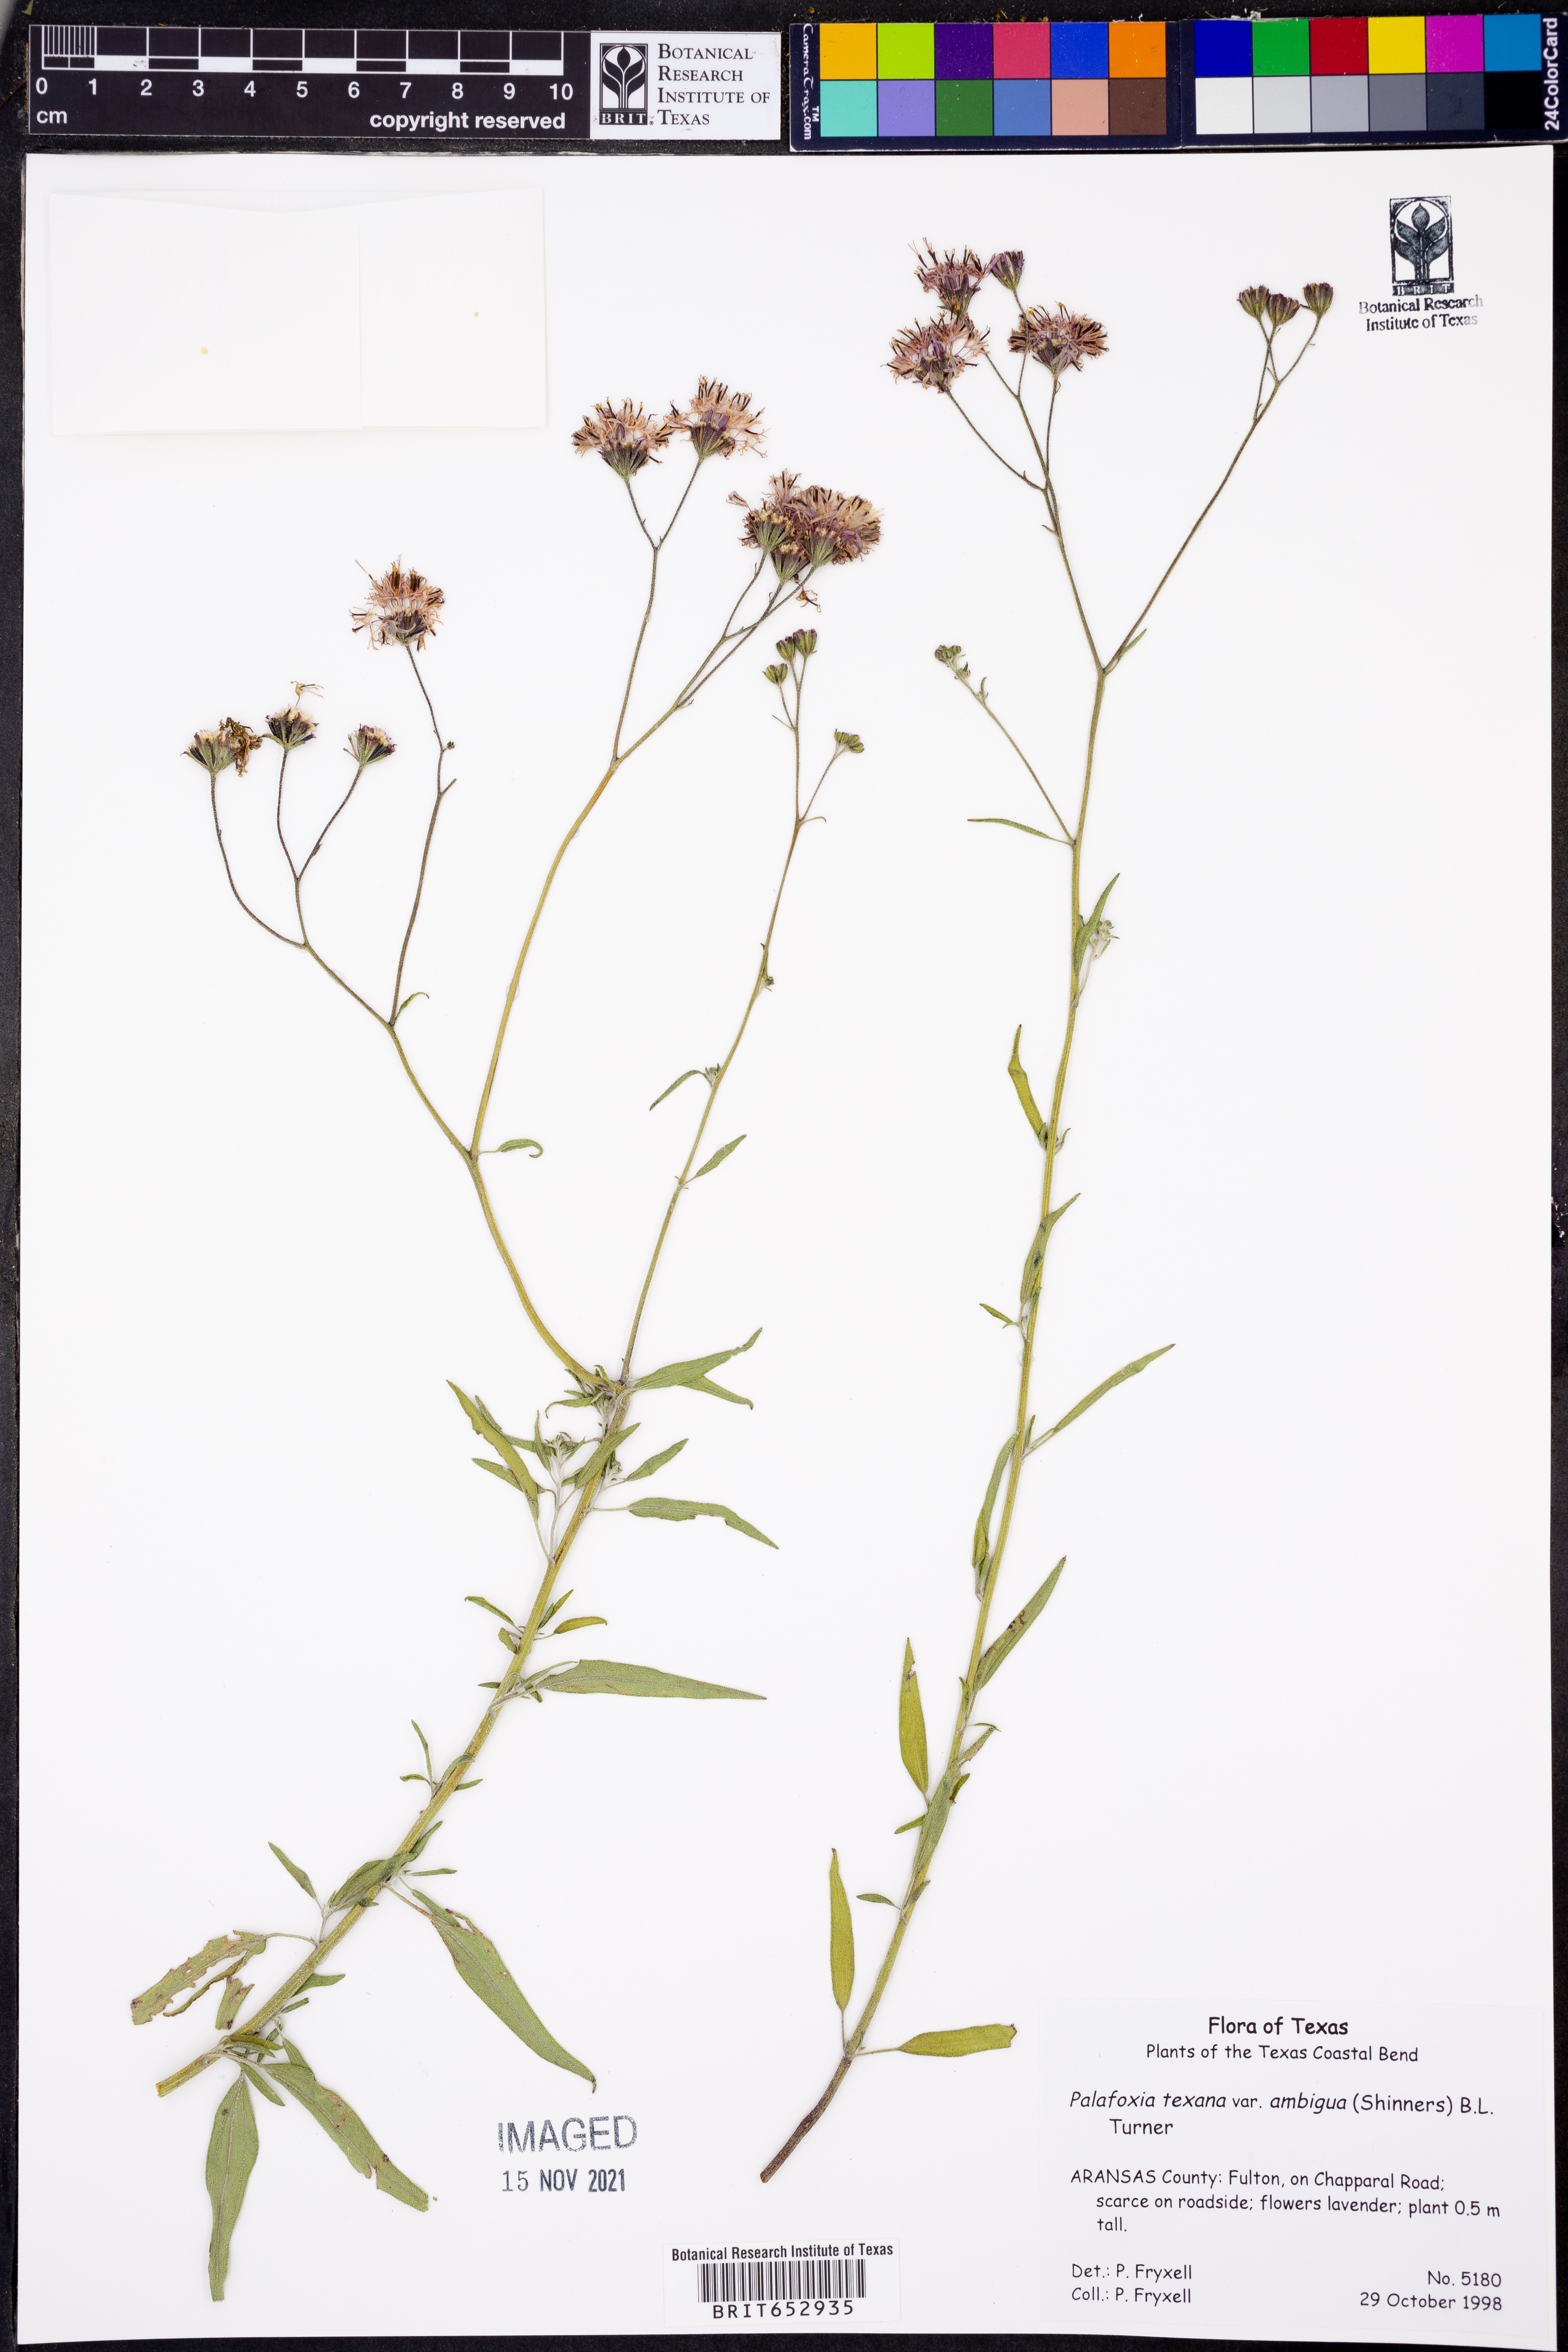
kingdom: Plantae
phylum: Tracheophyta
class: Magnoliopsida
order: Asterales
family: Asteraceae
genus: Palafoxia
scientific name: Palafoxia texana
